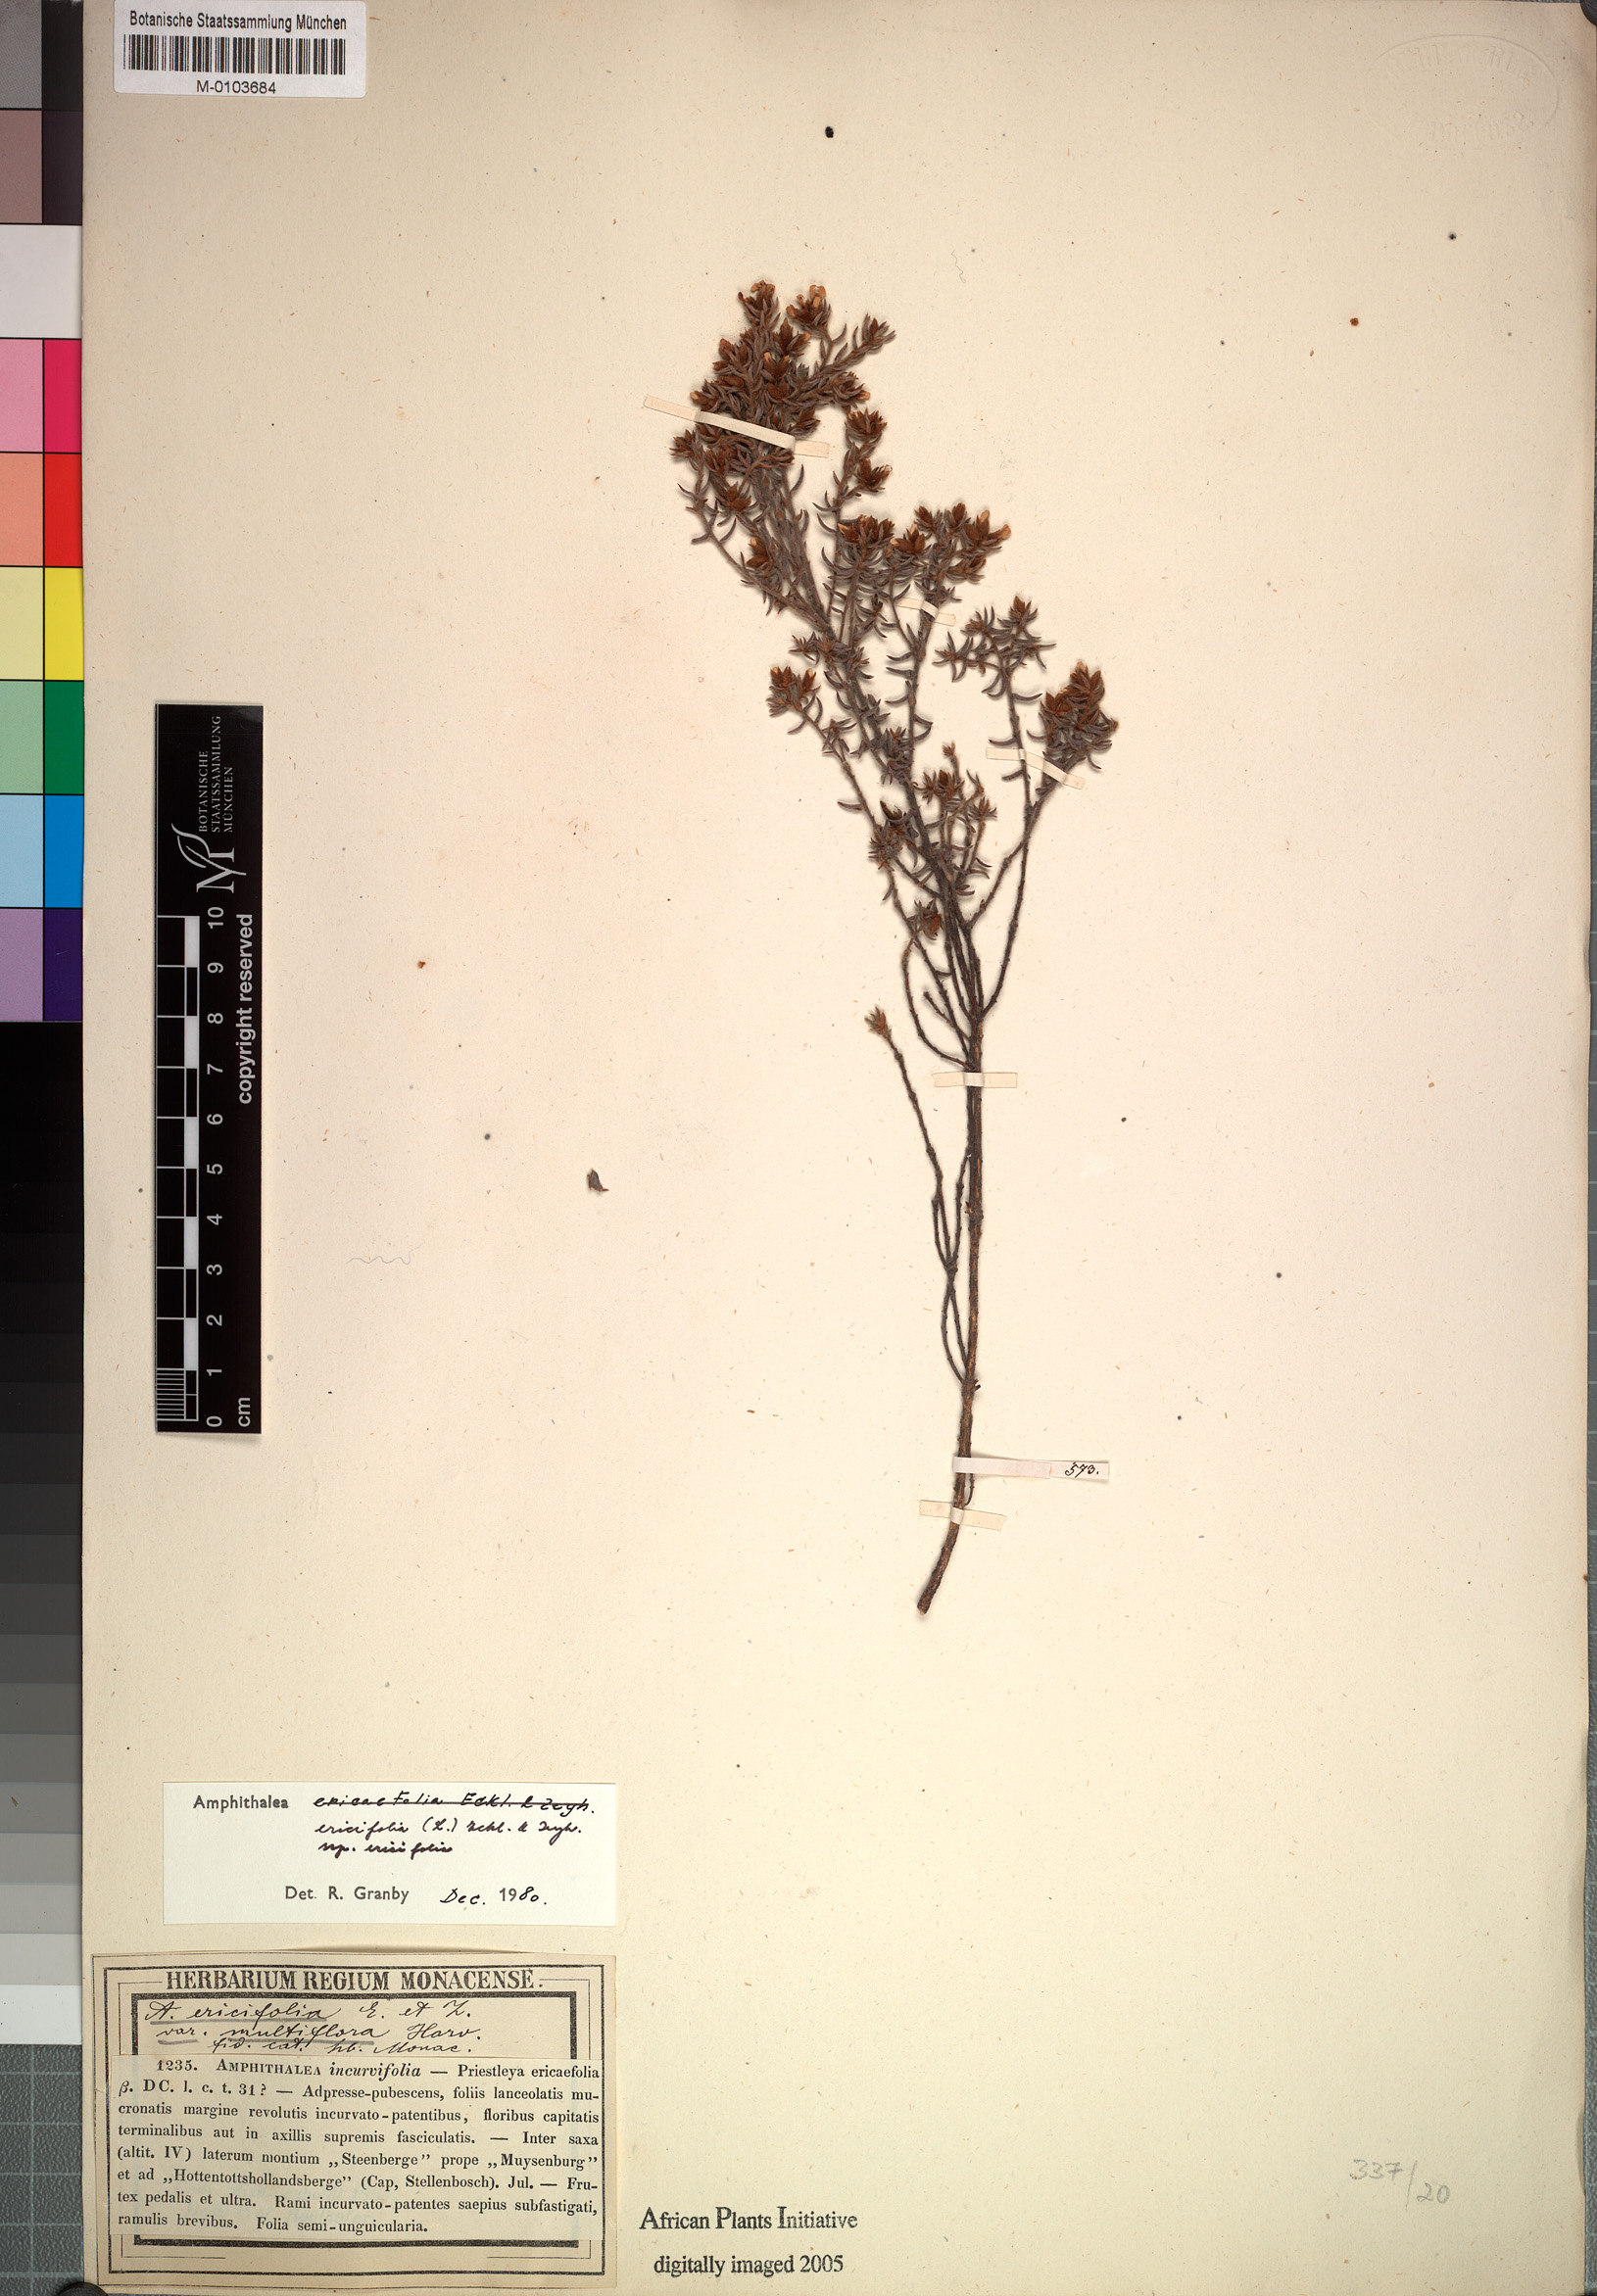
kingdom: Plantae
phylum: Tracheophyta
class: Magnoliopsida
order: Fabales
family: Fabaceae
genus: Amphithalea
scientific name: Amphithalea ericaefolia
